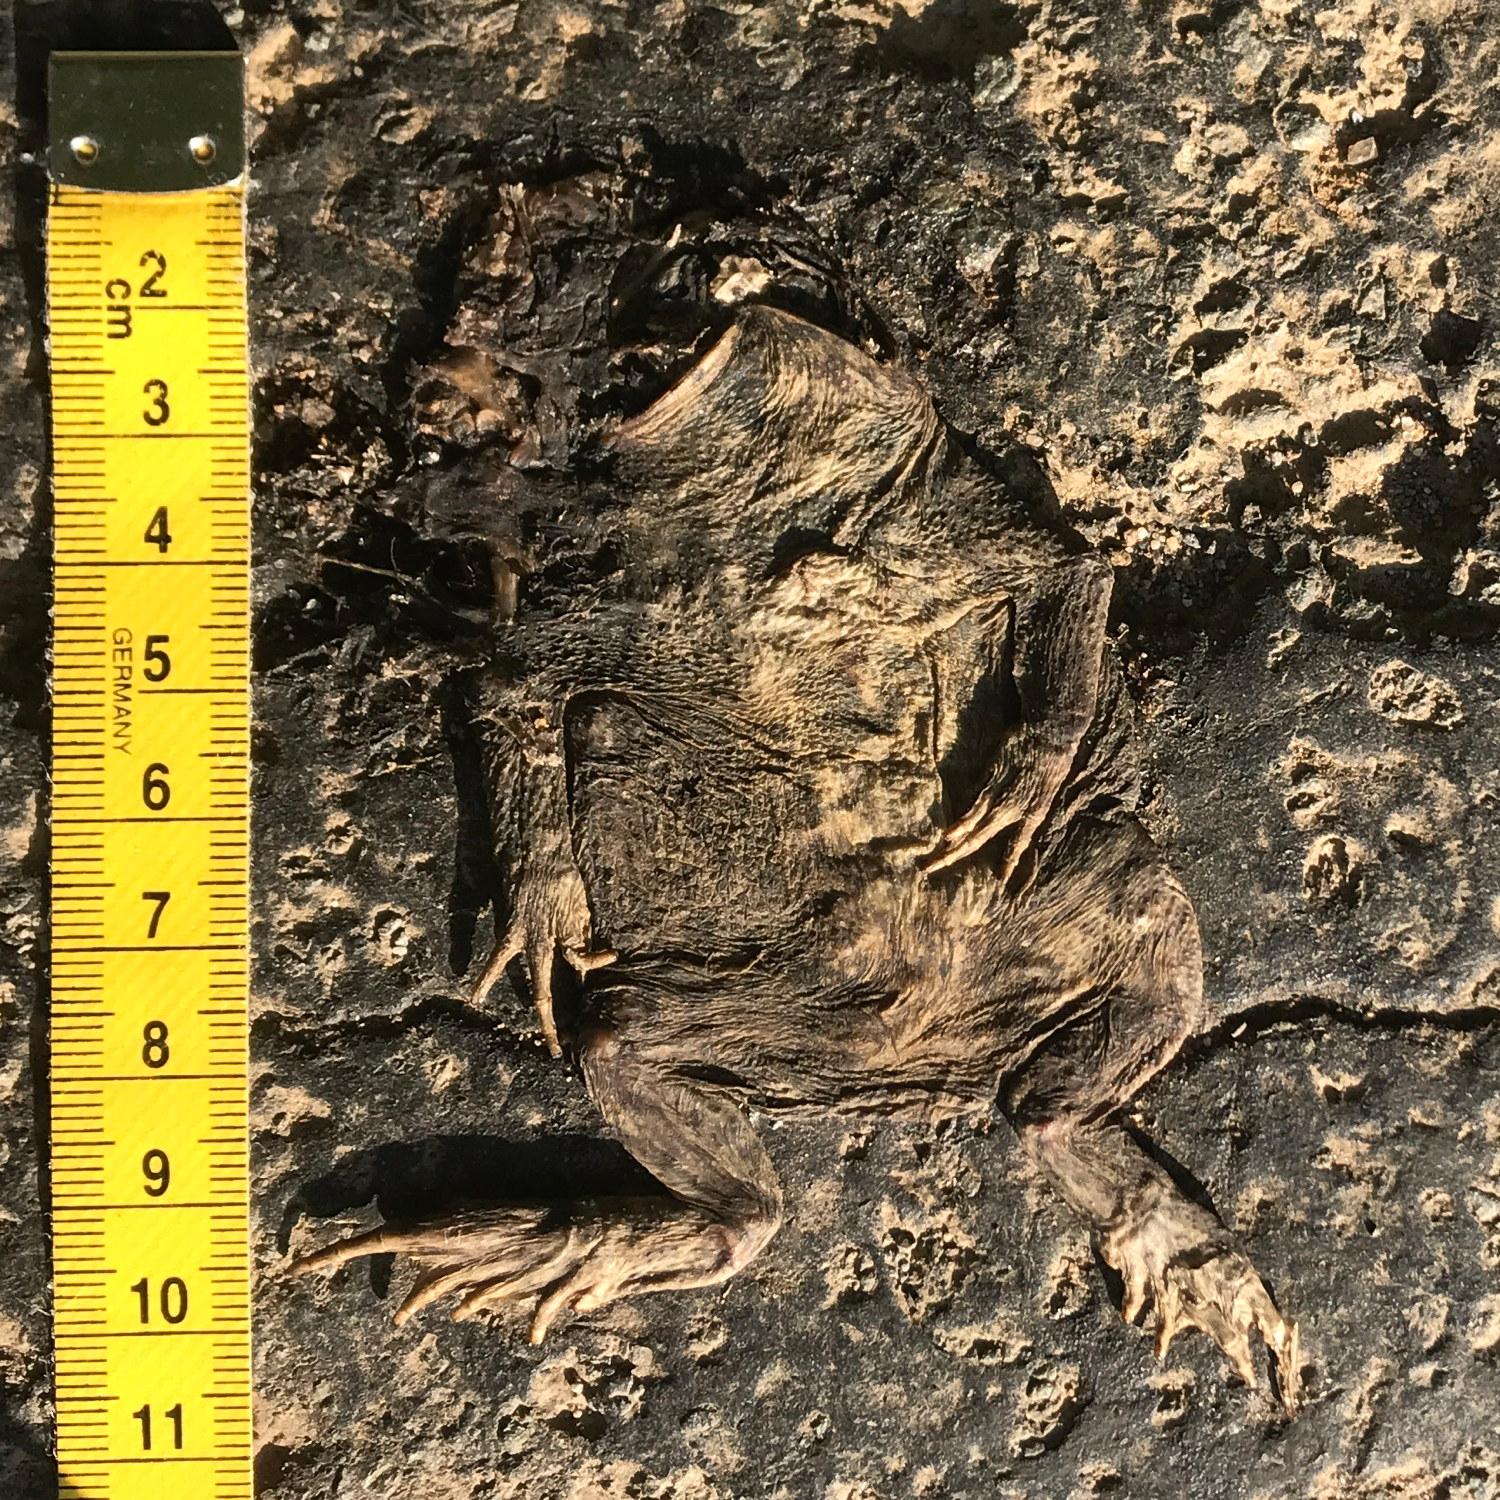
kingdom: Animalia
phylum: Chordata
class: Amphibia
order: Anura
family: Bufonidae
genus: Bufo
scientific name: Bufo bufo
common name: Common toad
